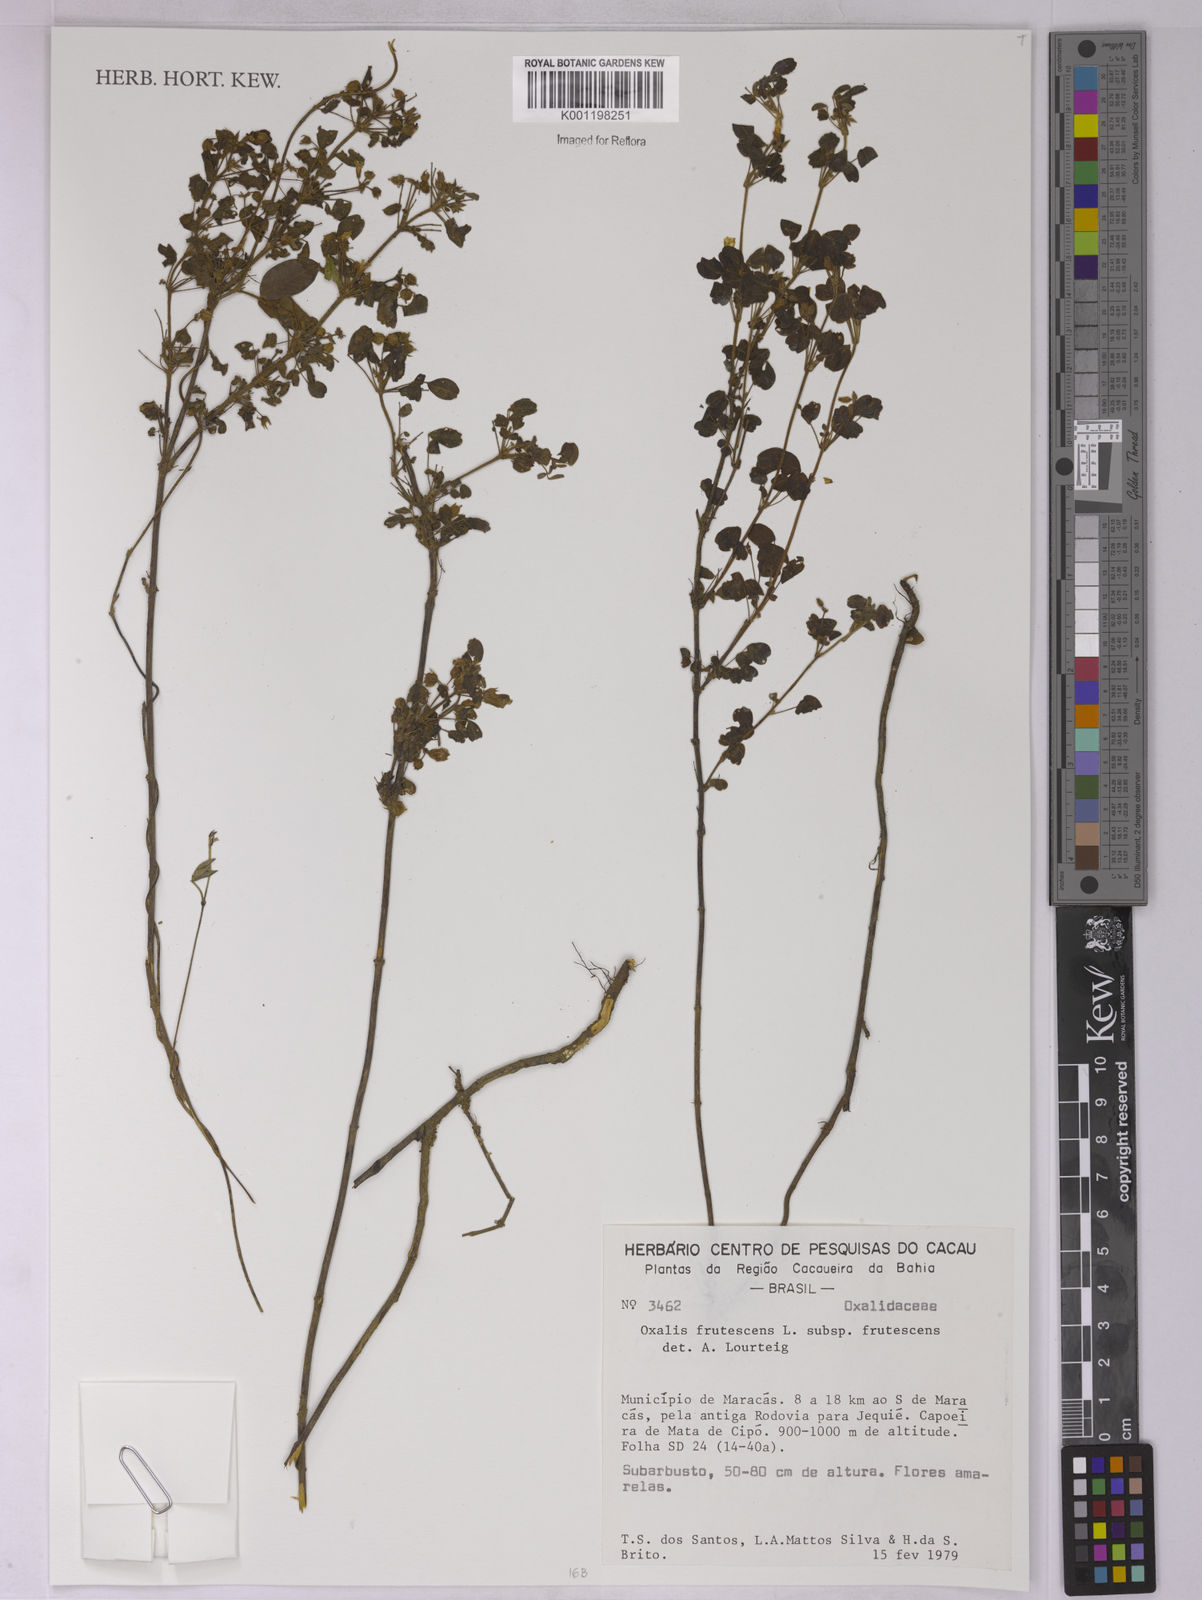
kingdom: Plantae
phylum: Tracheophyta
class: Magnoliopsida
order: Oxalidales
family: Oxalidaceae
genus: Oxalis
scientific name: Oxalis frutescens
